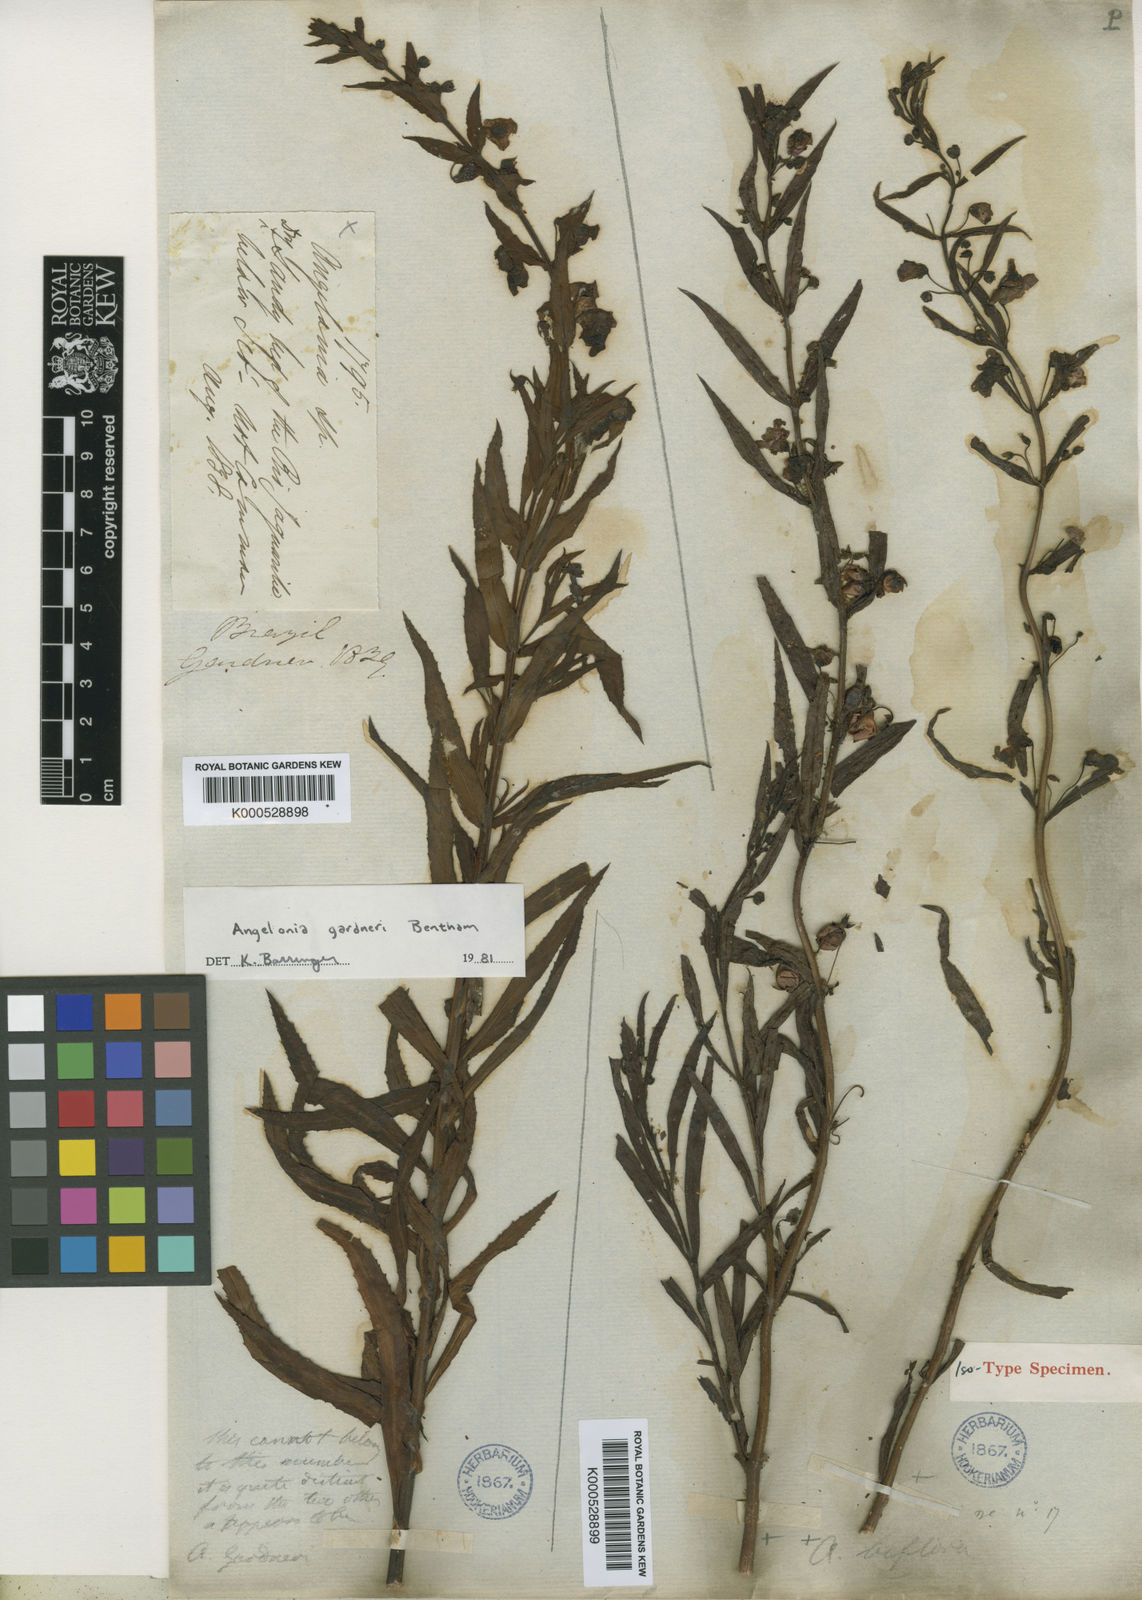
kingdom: Plantae
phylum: Tracheophyta
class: Magnoliopsida
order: Lamiales
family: Plantaginaceae
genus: Angelonia
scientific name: Angelonia biflora
